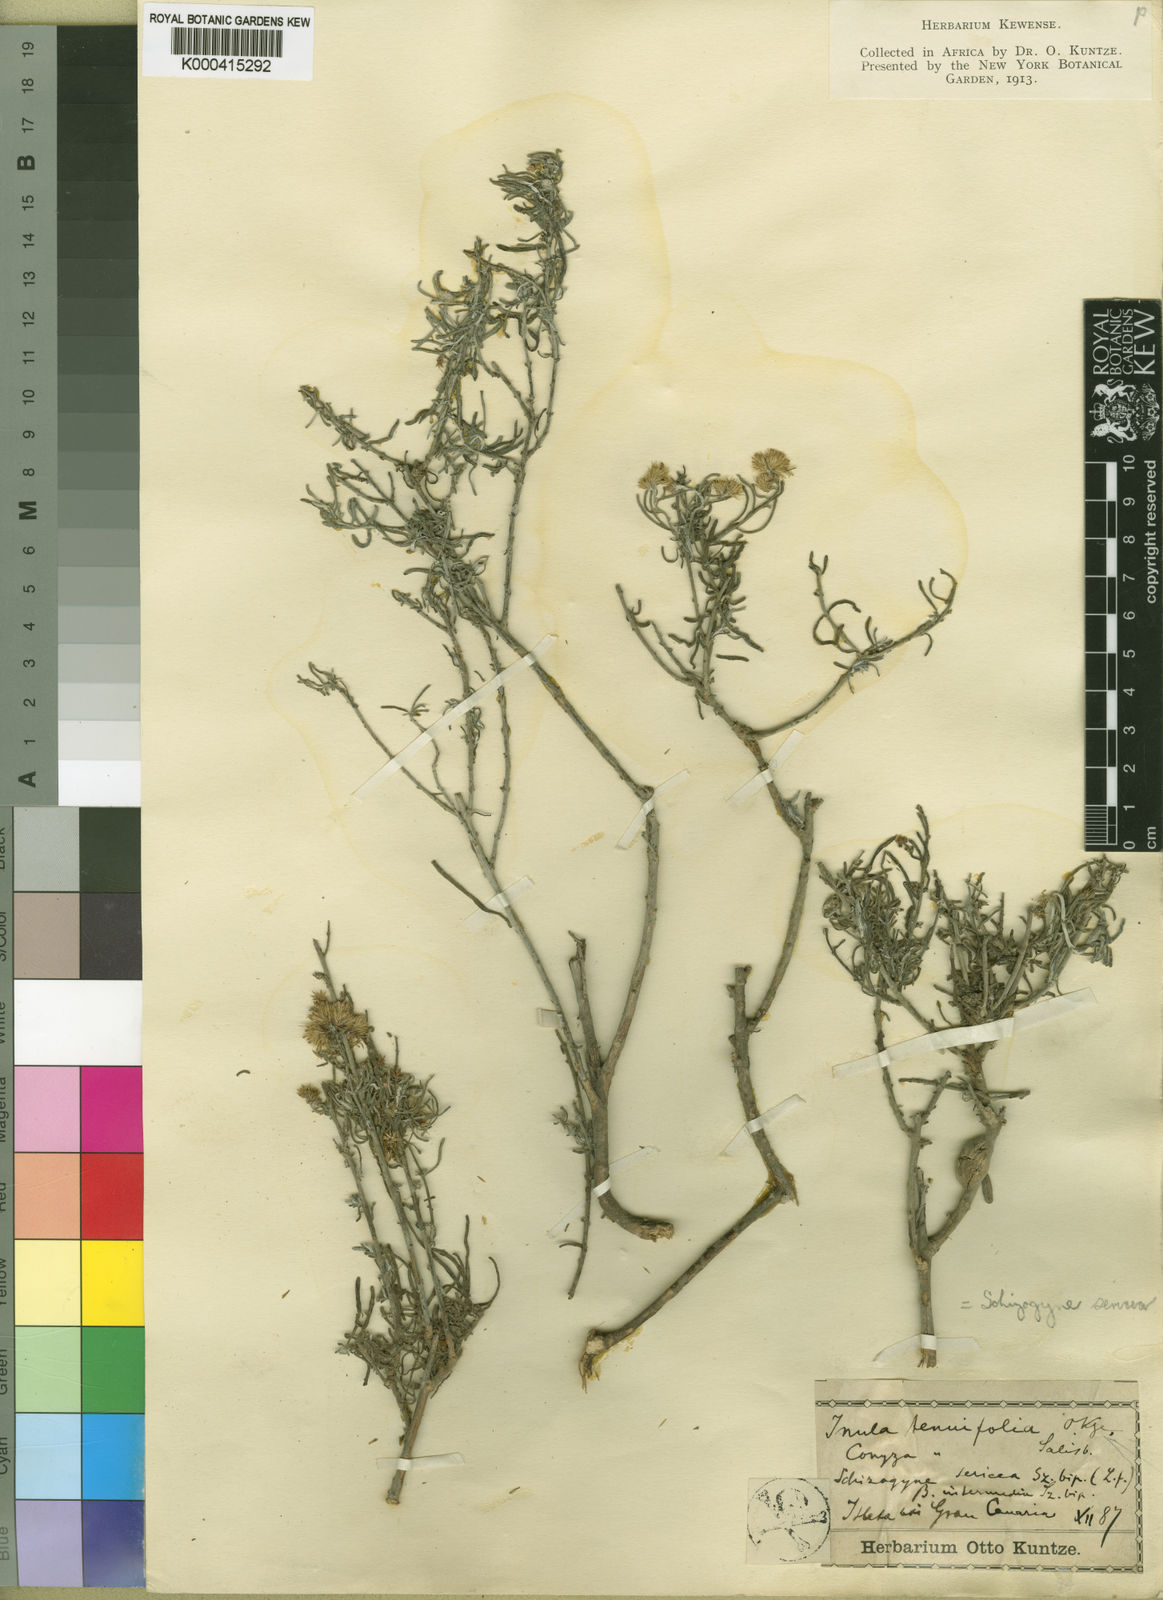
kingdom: Plantae
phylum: Tracheophyta
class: Magnoliopsida
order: Asterales
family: Asteraceae
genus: Schizogyne
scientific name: Schizogyne sericea
